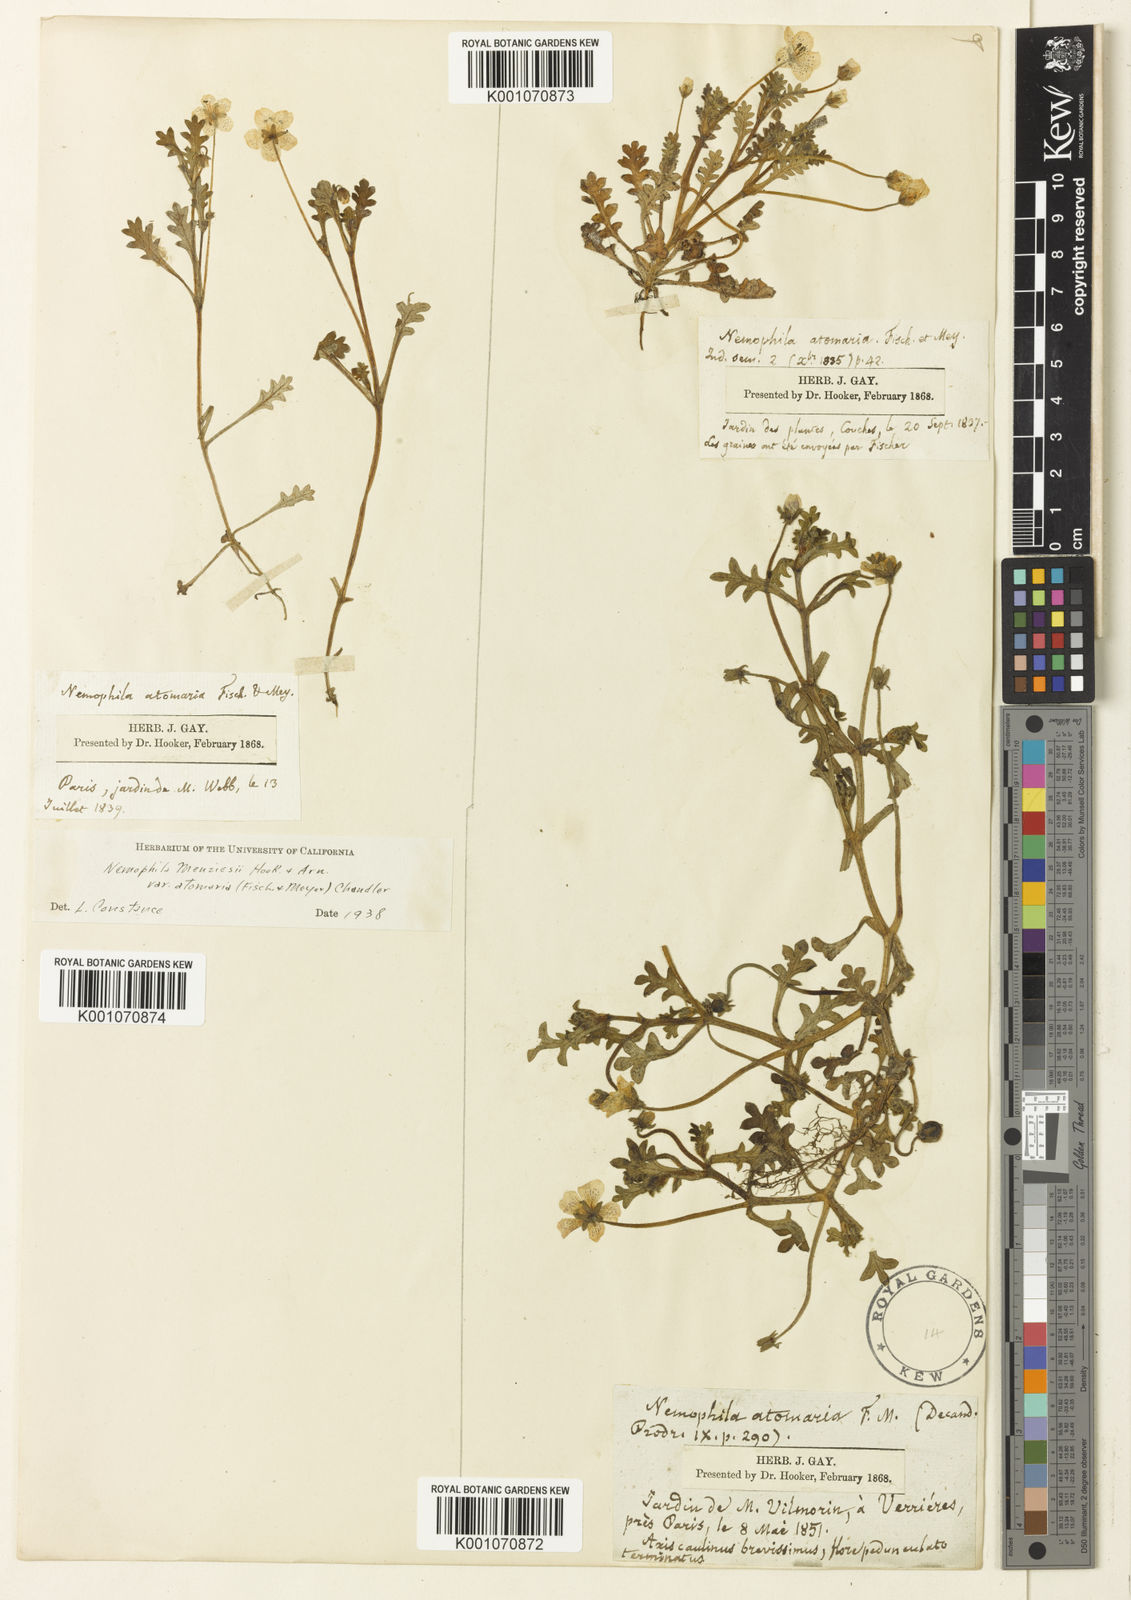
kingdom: Plantae
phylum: Tracheophyta
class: Magnoliopsida
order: Boraginales
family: Hydrophyllaceae
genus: Nemophila
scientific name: Nemophila
